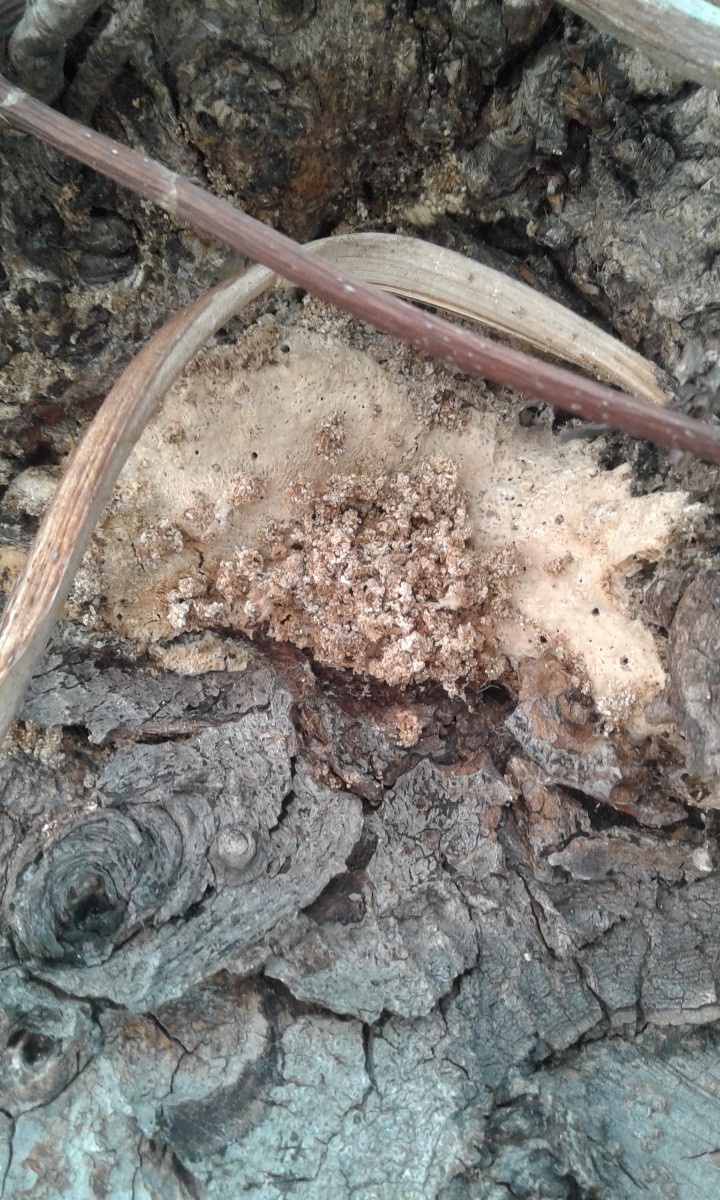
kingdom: Fungi
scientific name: Fungi
